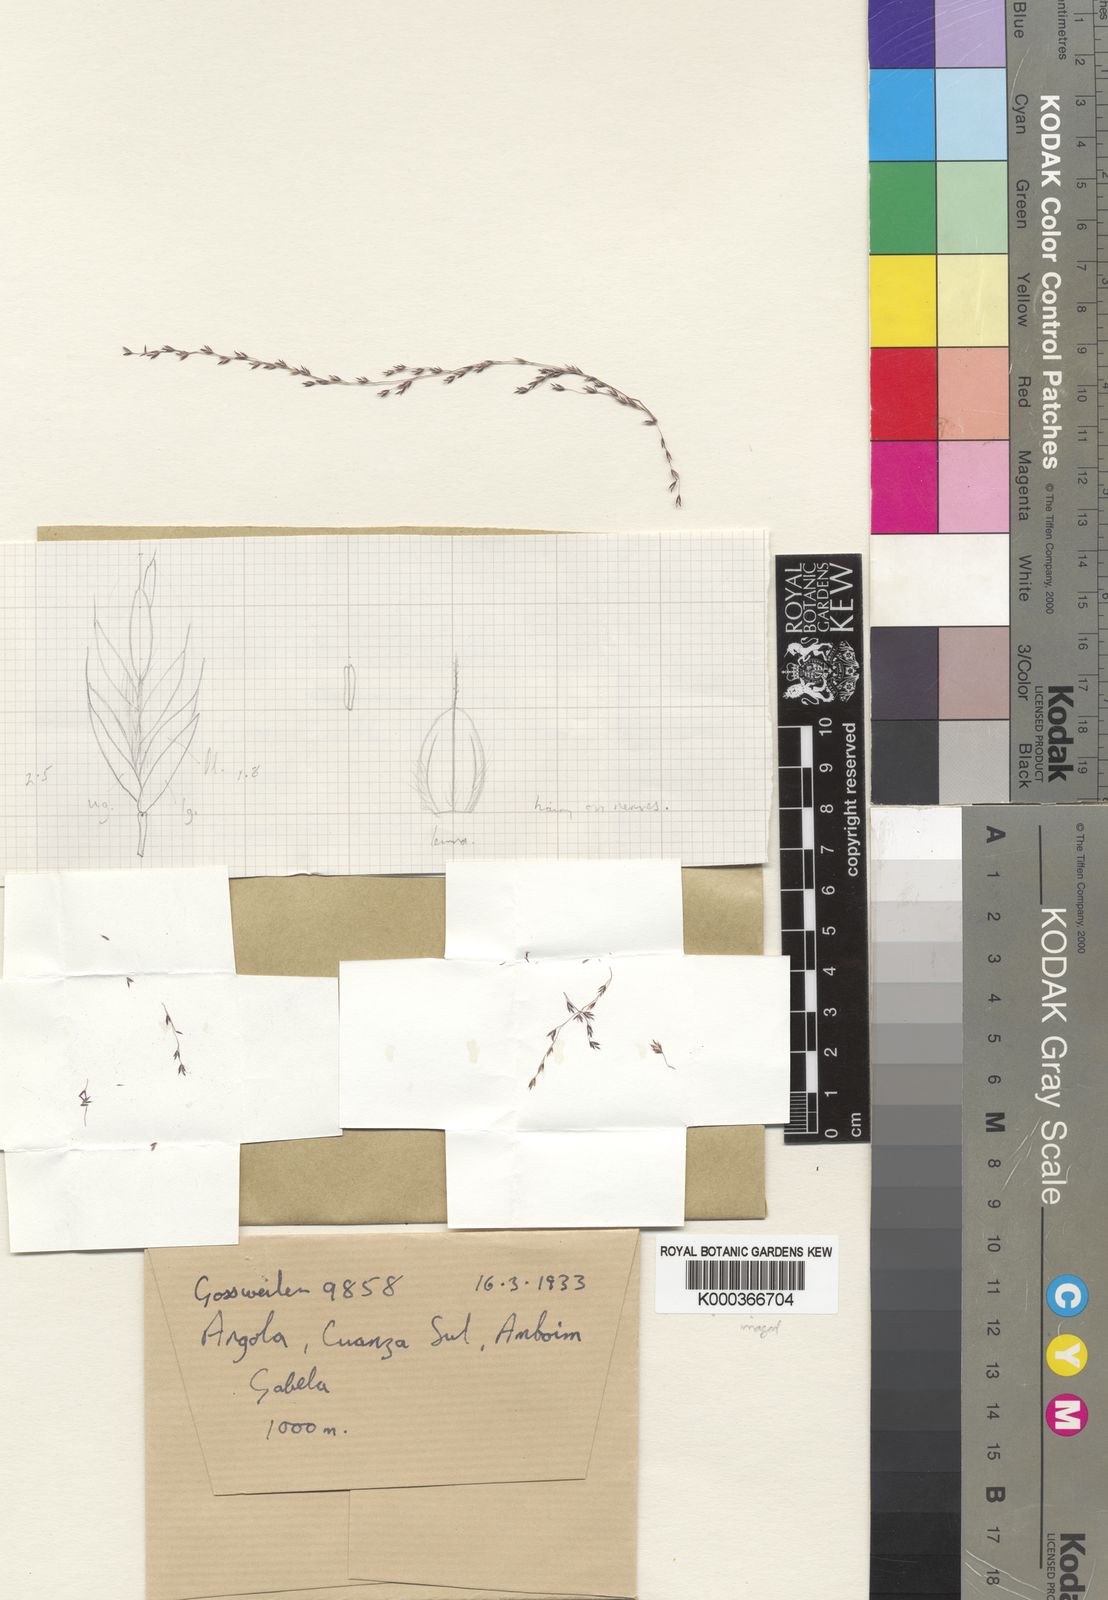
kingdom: Plantae
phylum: Tracheophyta
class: Liliopsida
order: Poales
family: Poaceae
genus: Tridens
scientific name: Tridens
